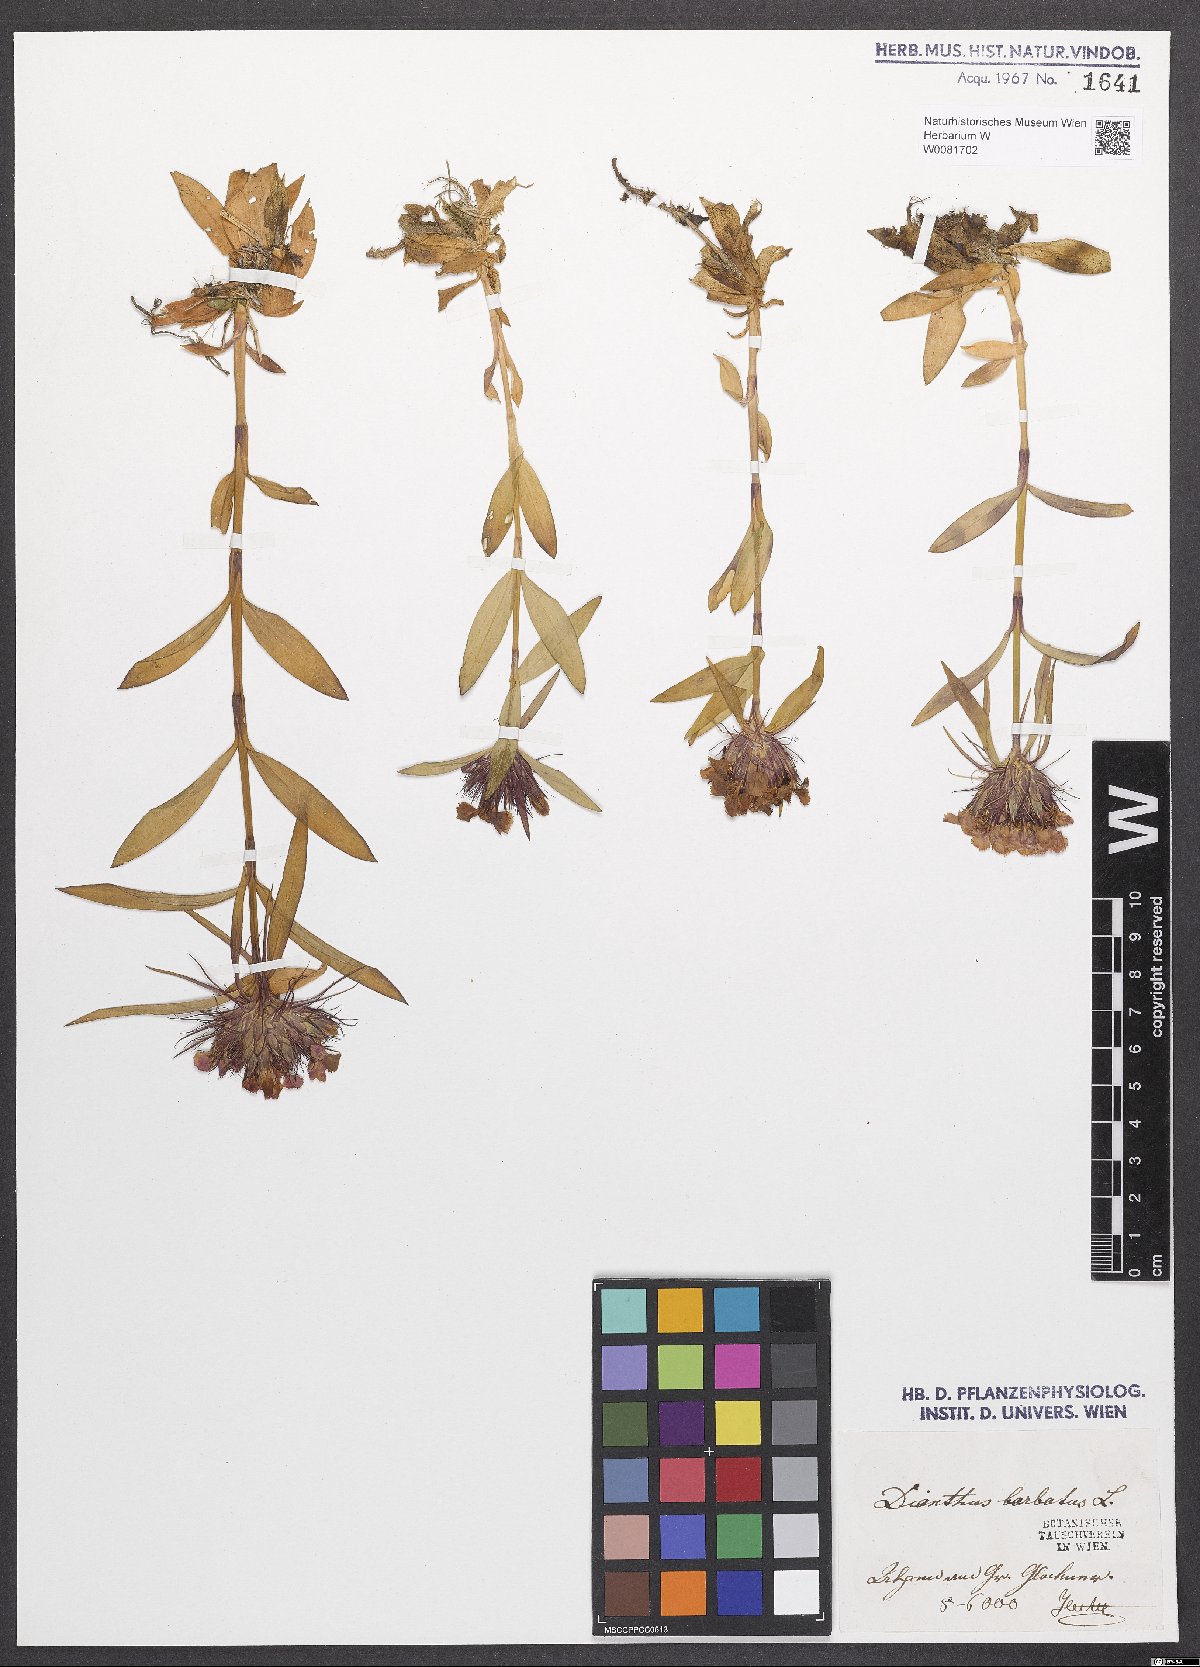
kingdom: Plantae
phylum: Tracheophyta
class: Magnoliopsida
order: Caryophyllales
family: Caryophyllaceae
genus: Dianthus
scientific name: Dianthus barbatus
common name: Sweet-william
